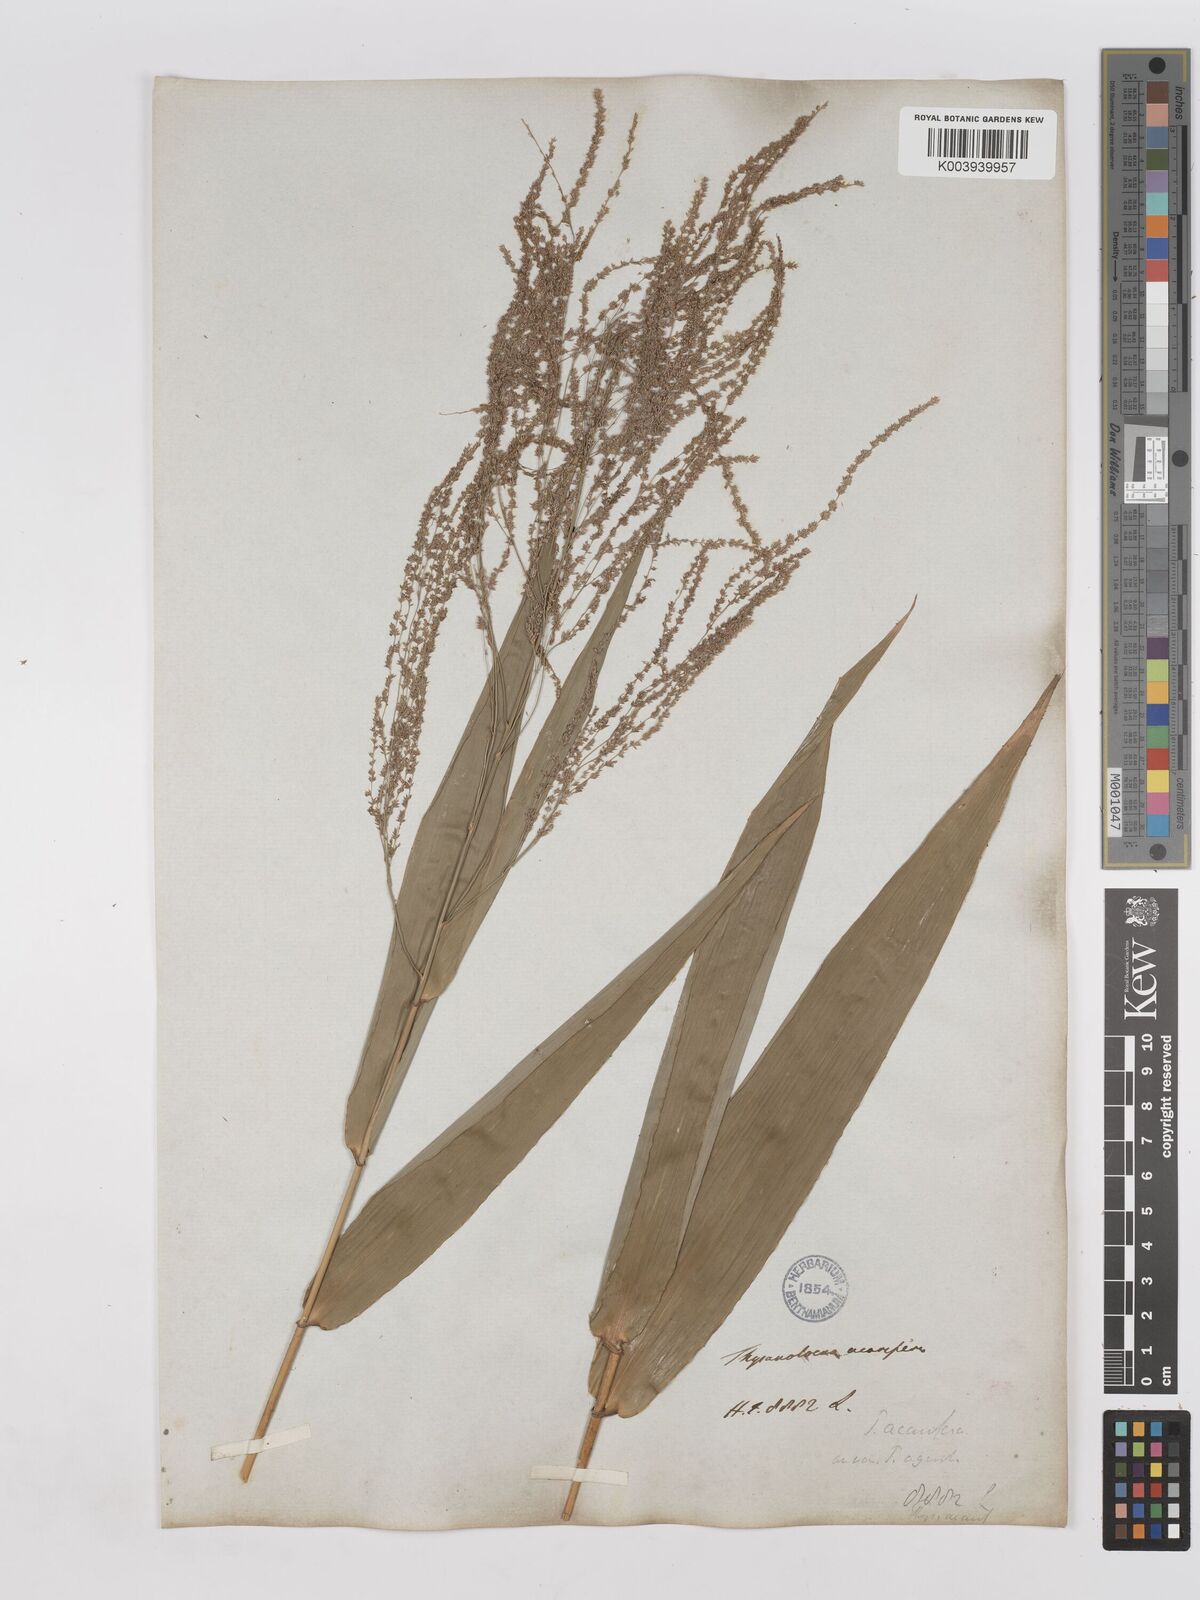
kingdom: Plantae
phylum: Tracheophyta
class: Liliopsida
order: Poales
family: Poaceae
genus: Thysanolaena
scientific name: Thysanolaena latifolia
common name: Tiger grass
